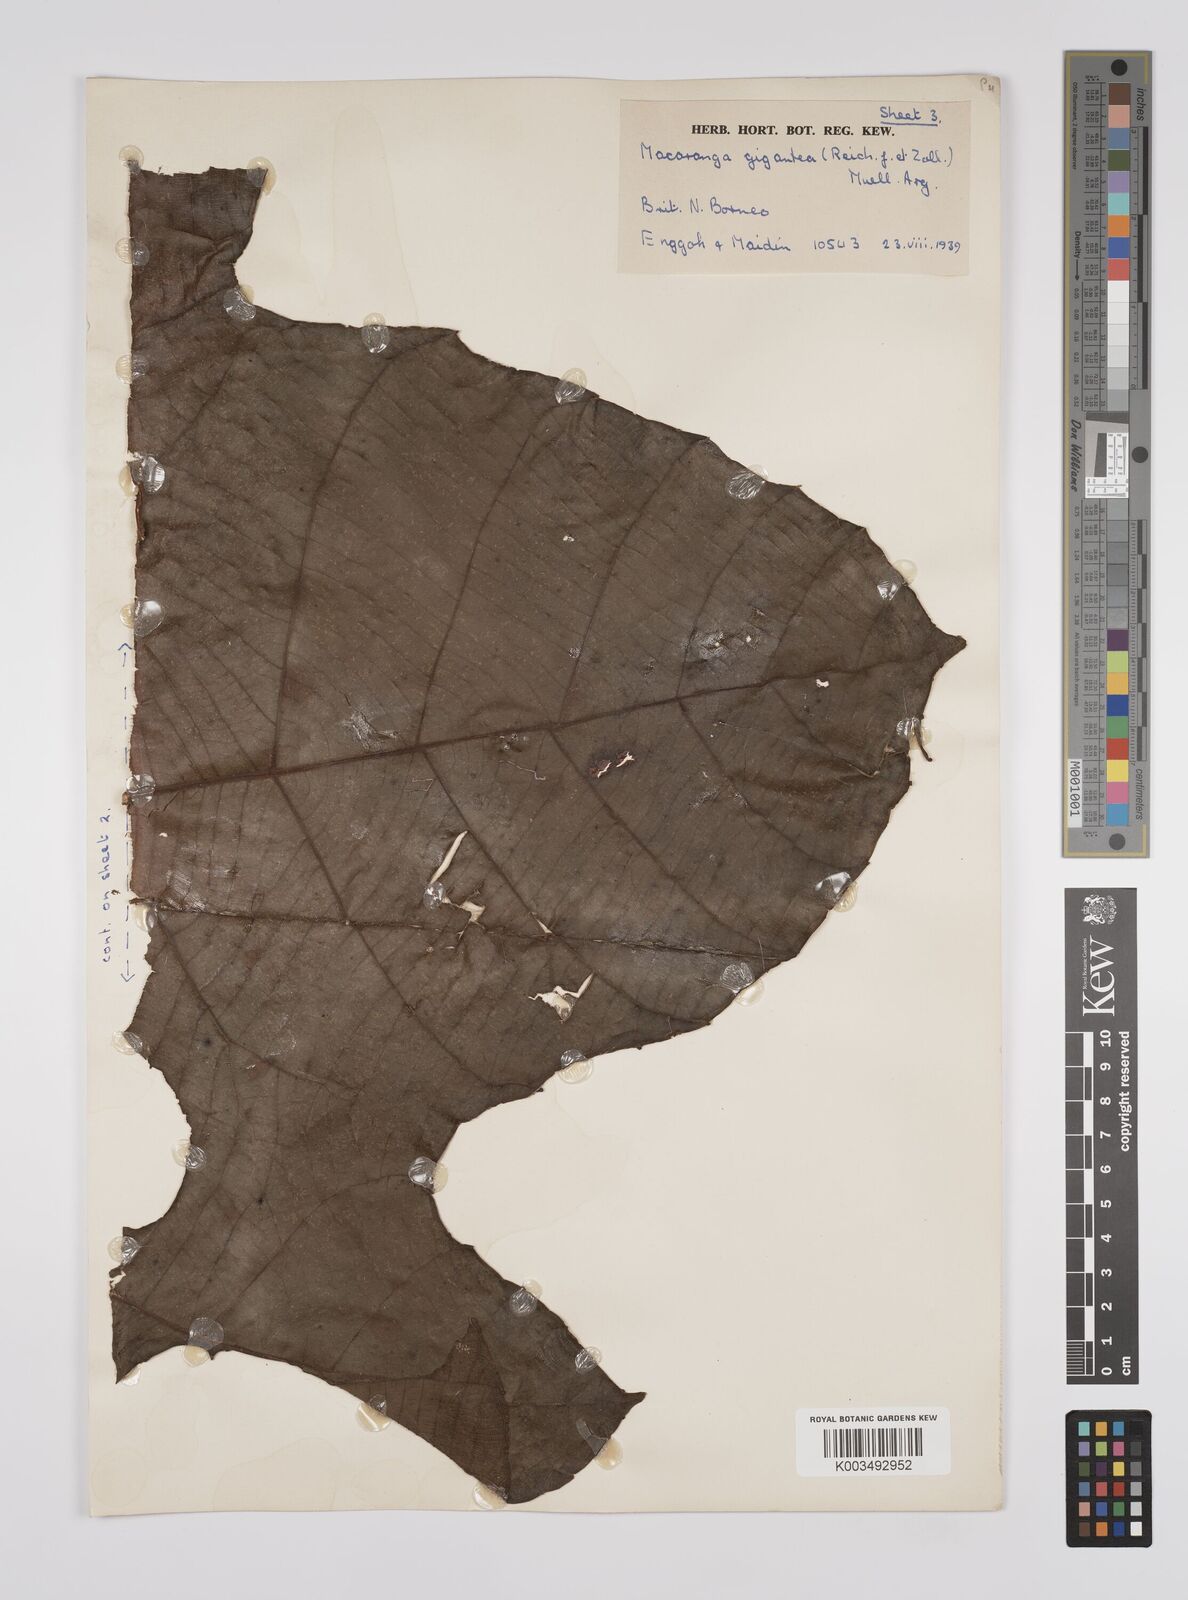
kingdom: Plantae
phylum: Tracheophyta
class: Magnoliopsida
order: Malpighiales
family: Euphorbiaceae
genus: Macaranga
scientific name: Macaranga gigantea
